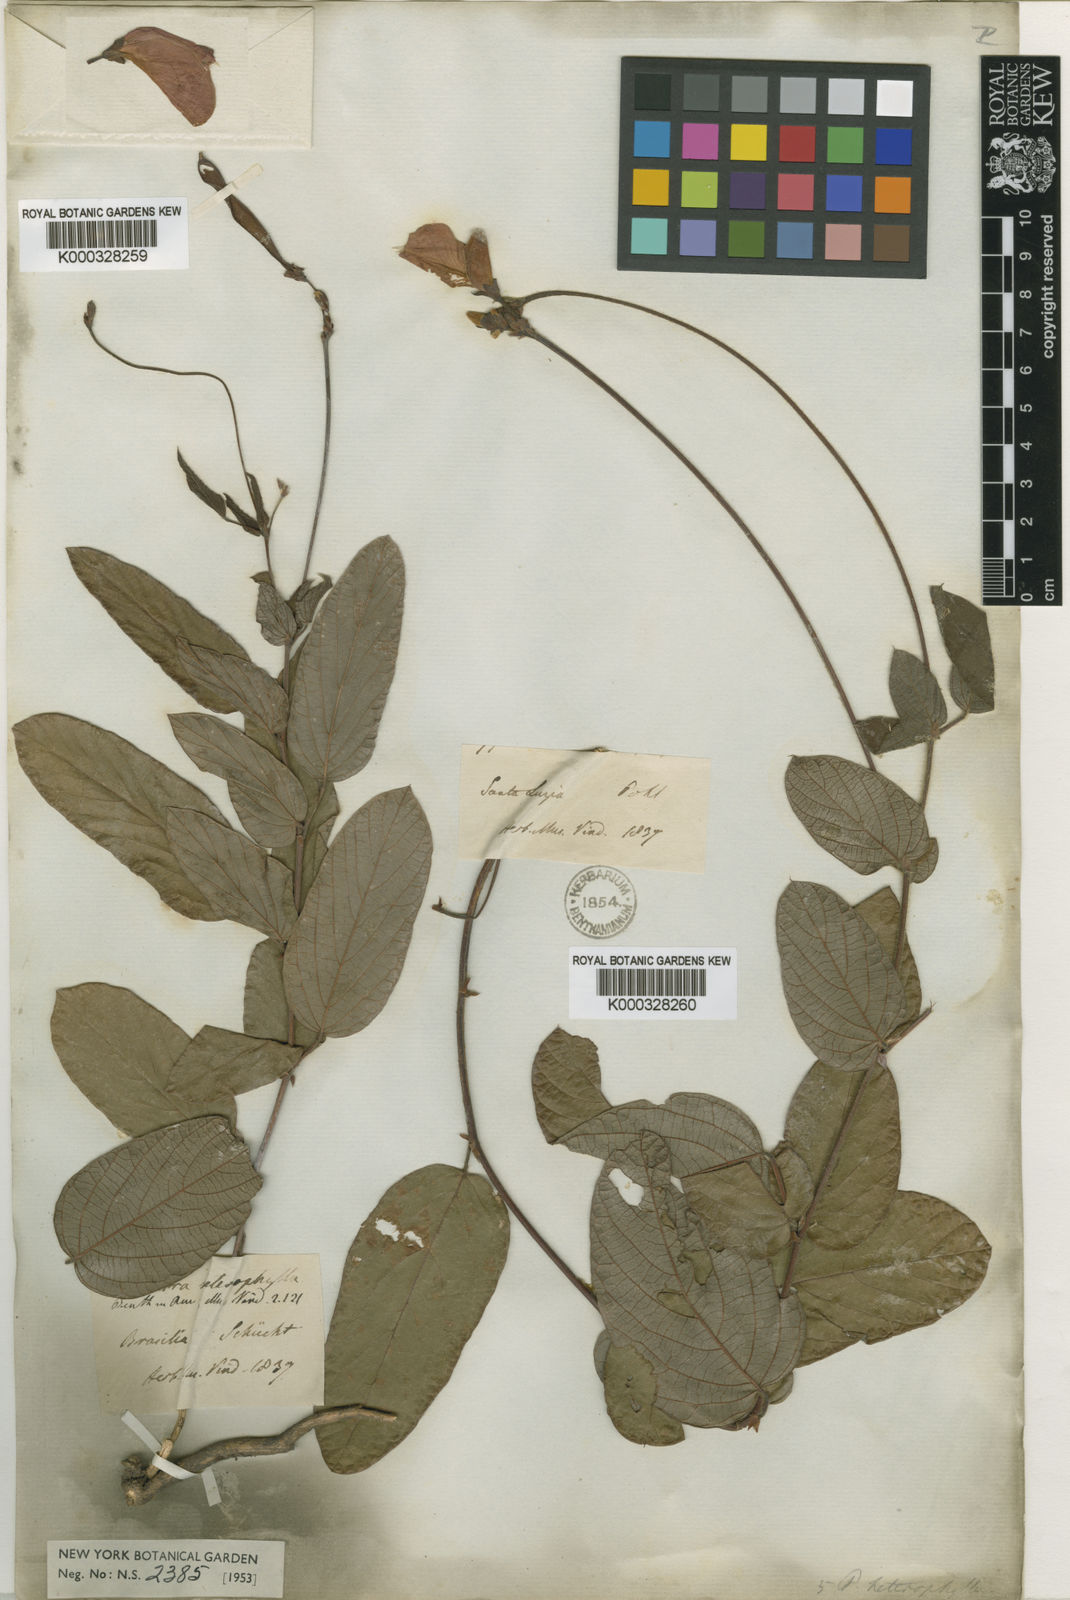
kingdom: Plantae
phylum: Tracheophyta
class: Magnoliopsida
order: Fabales
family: Fabaceae
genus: Periandra
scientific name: Periandra heterophylla
